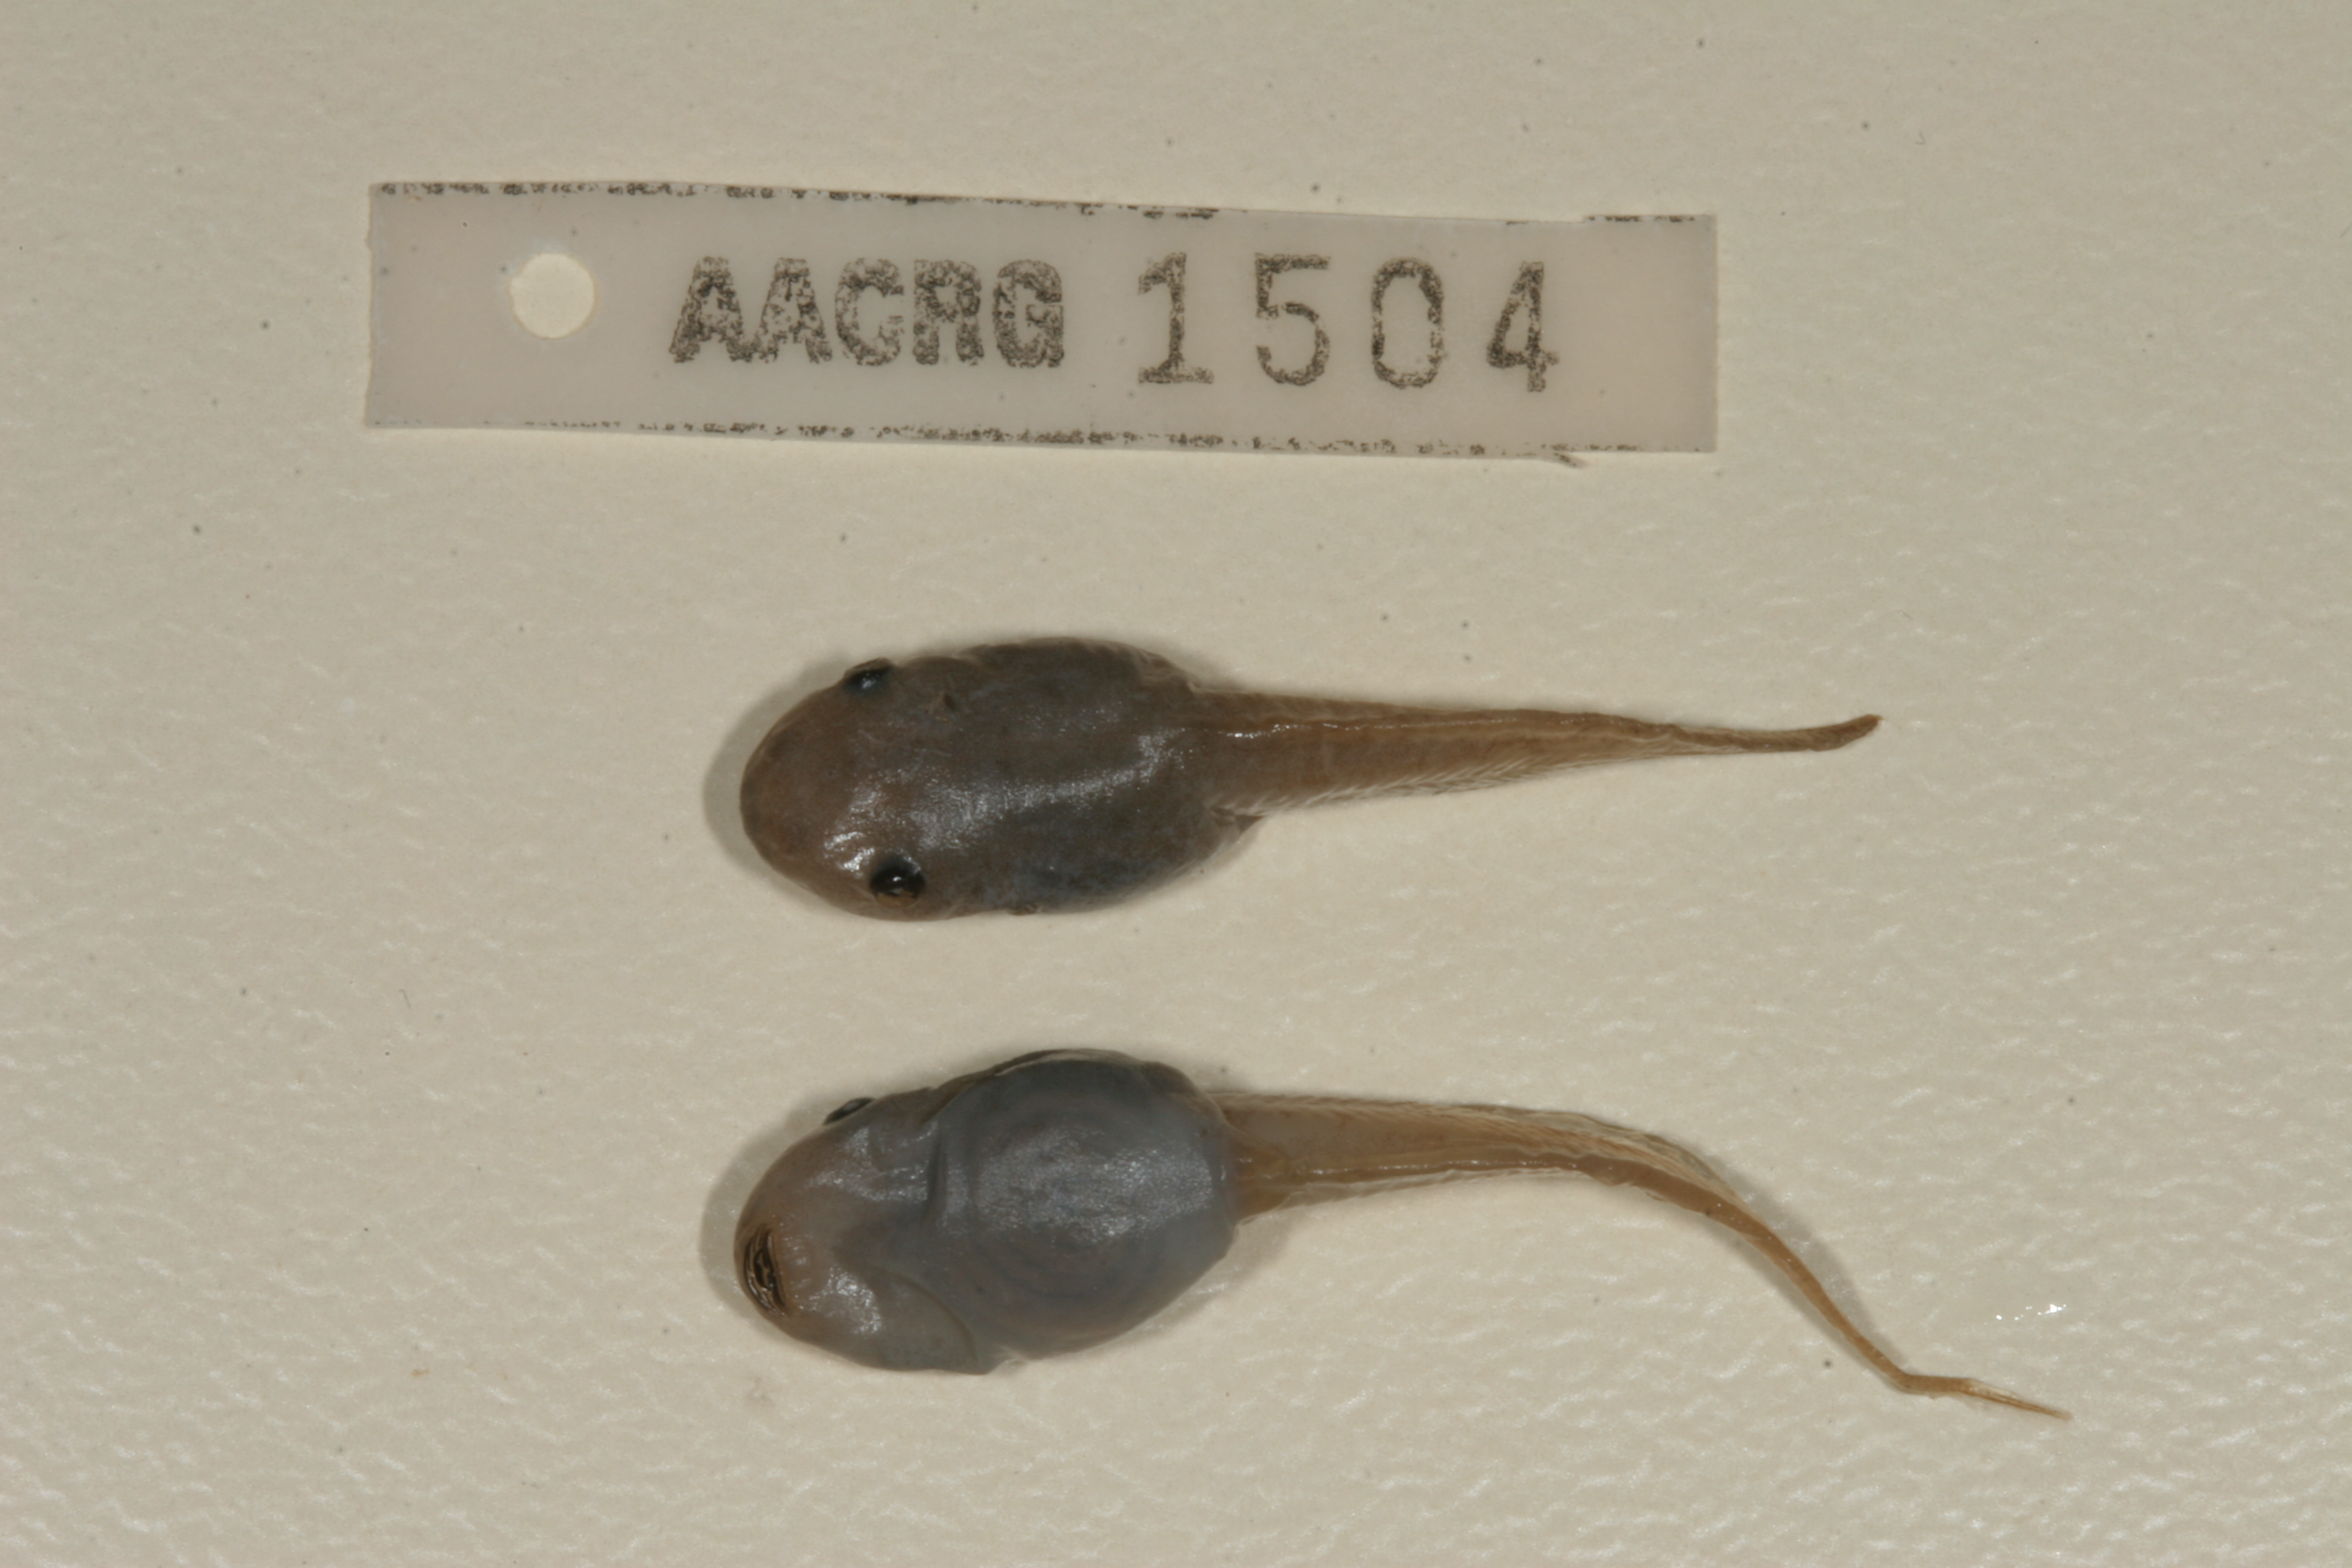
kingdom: Animalia
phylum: Chordata
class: Amphibia
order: Anura
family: Hemisotidae
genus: Hemisus
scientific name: Hemisus marmoratus
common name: Mottled shovel-nosed frog
